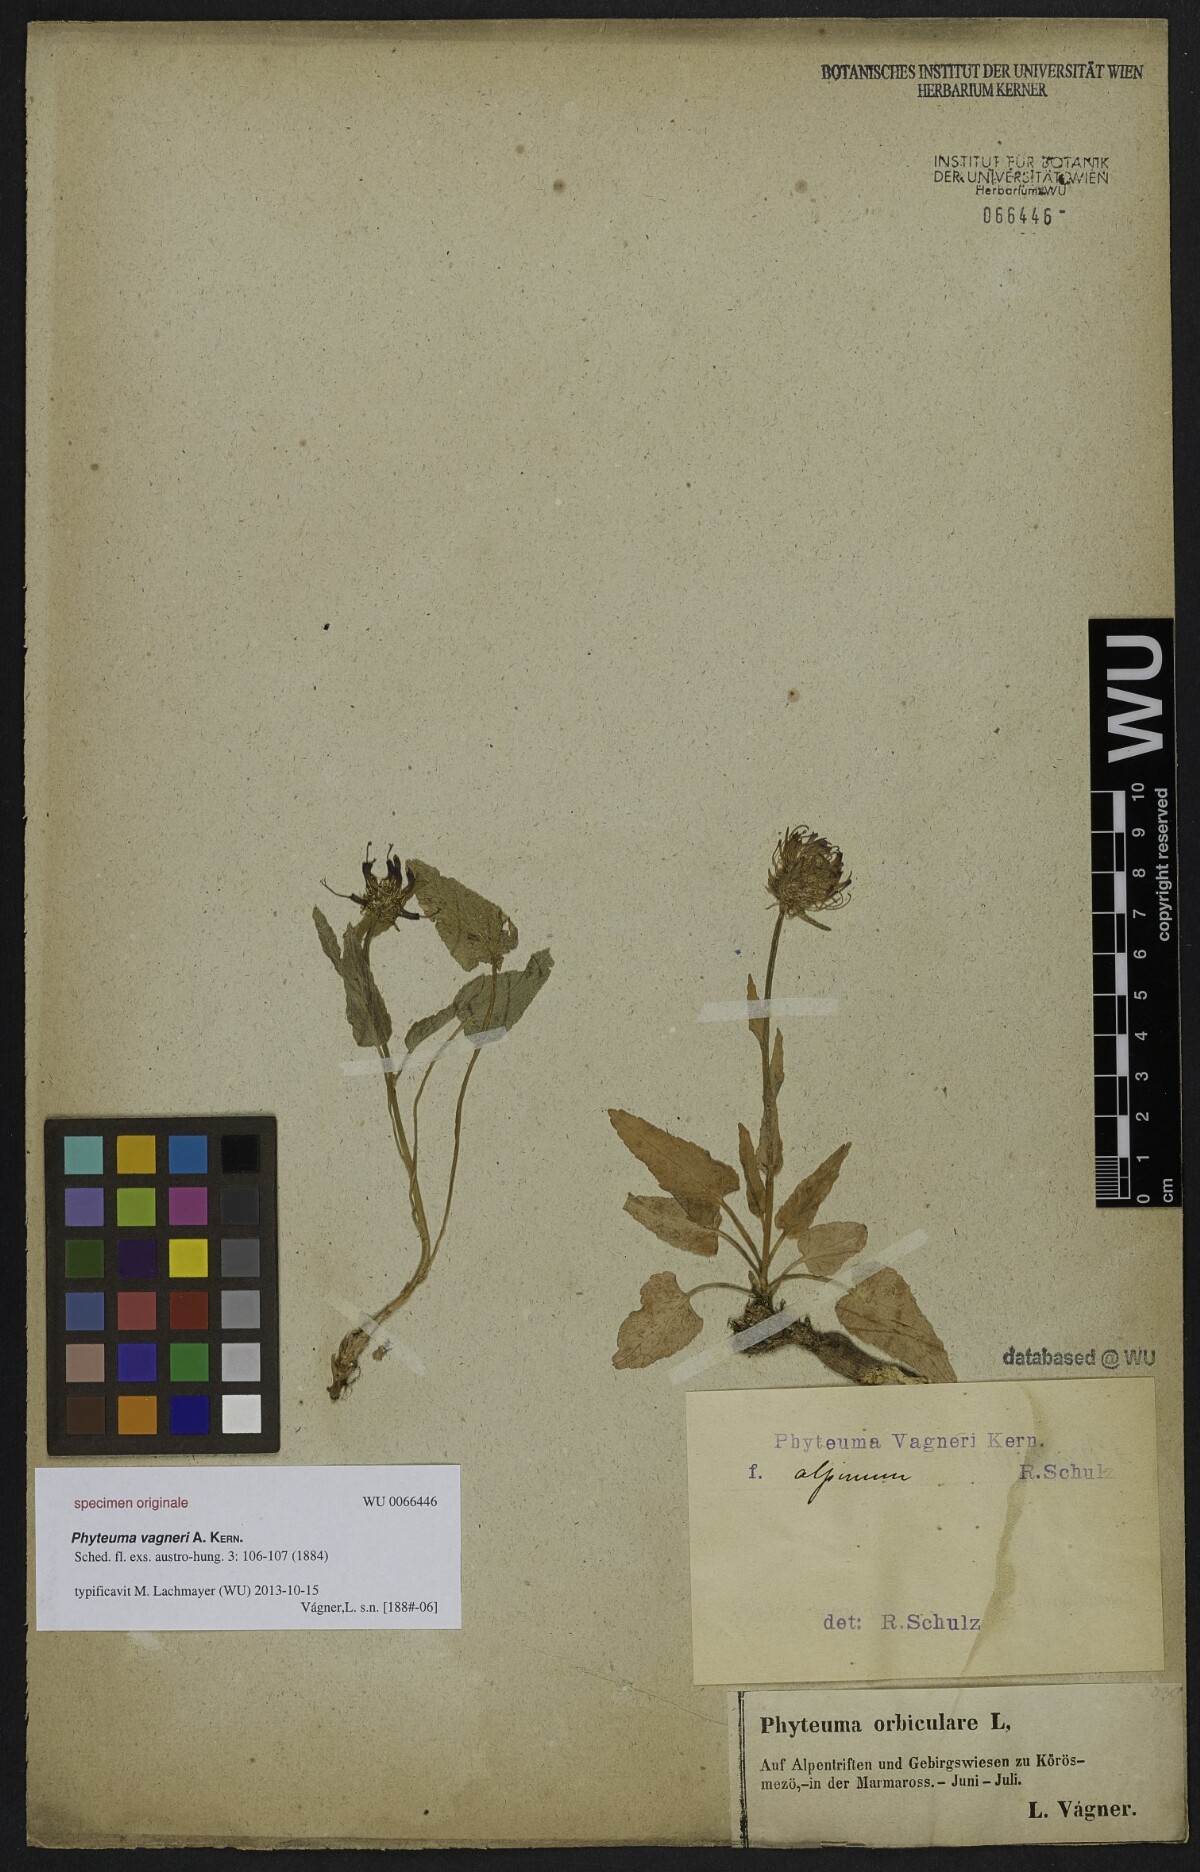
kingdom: Plantae
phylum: Tracheophyta
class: Magnoliopsida
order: Asterales
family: Campanulaceae
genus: Phyteuma
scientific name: Phyteuma vagneri
